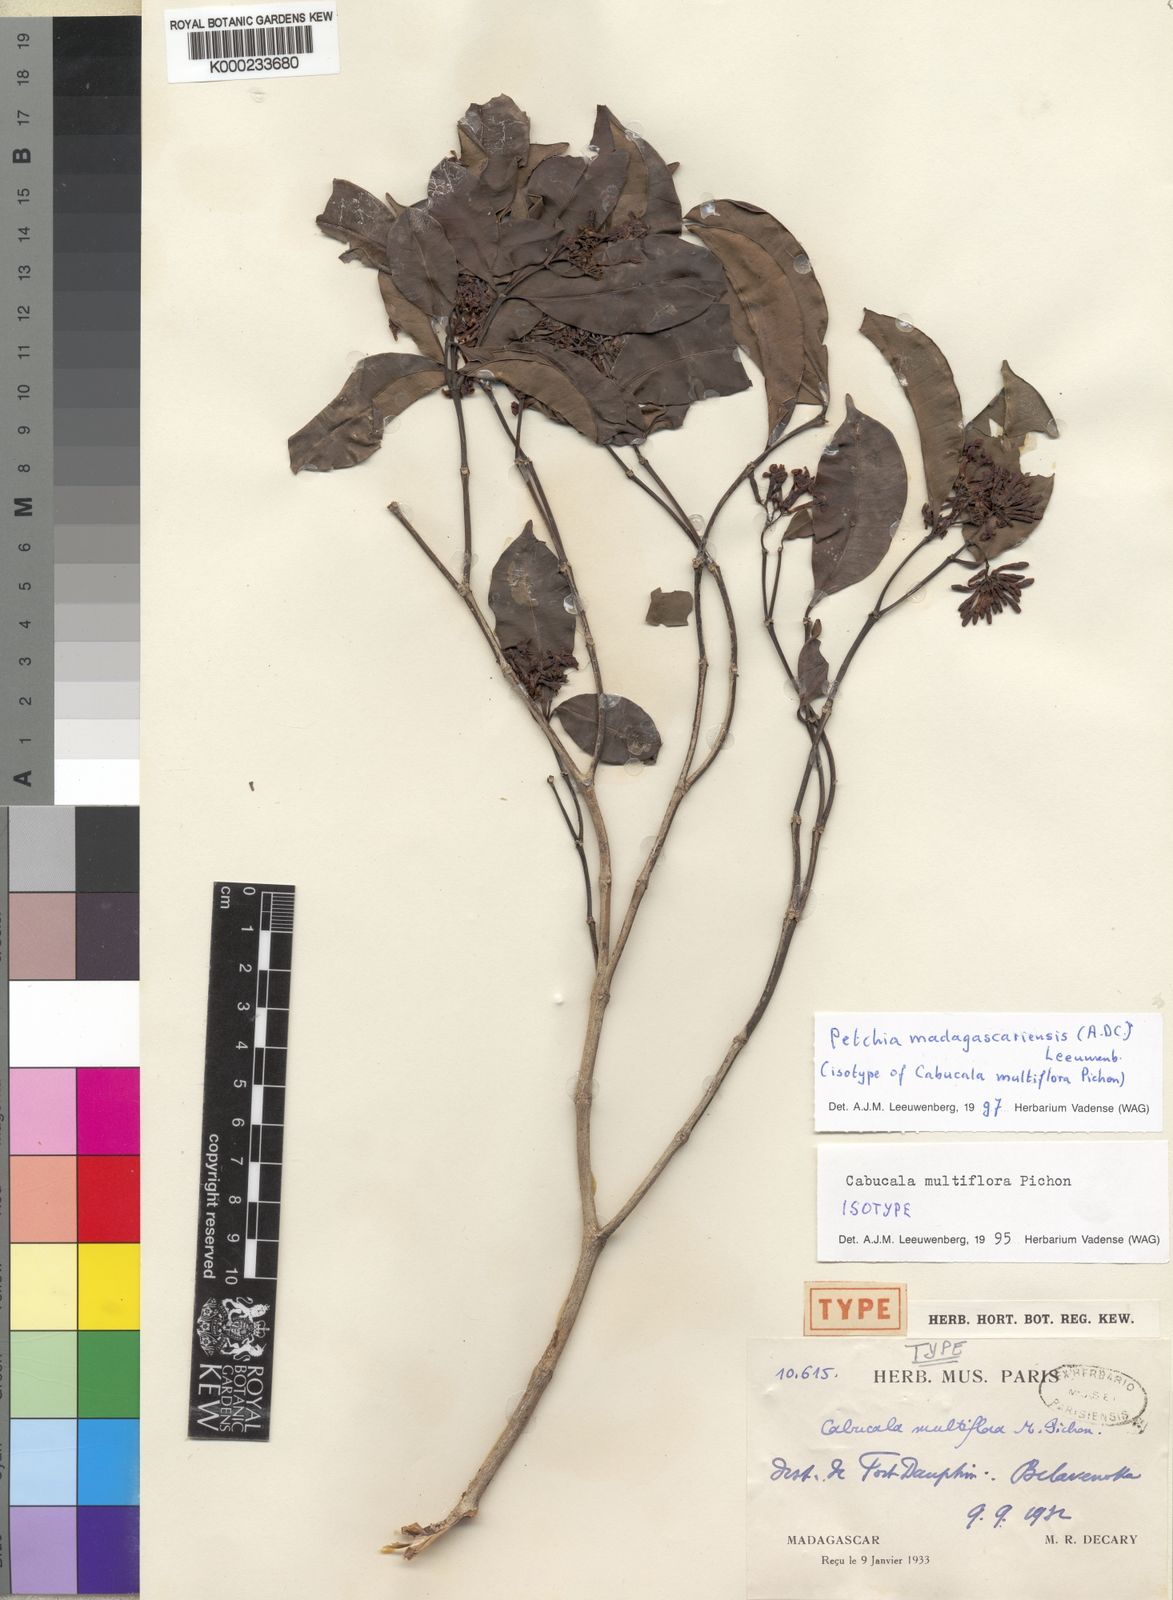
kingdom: Plantae
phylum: Tracheophyta
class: Magnoliopsida
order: Gentianales
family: Apocynaceae
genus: Petchia
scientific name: Petchia madagascariensis
